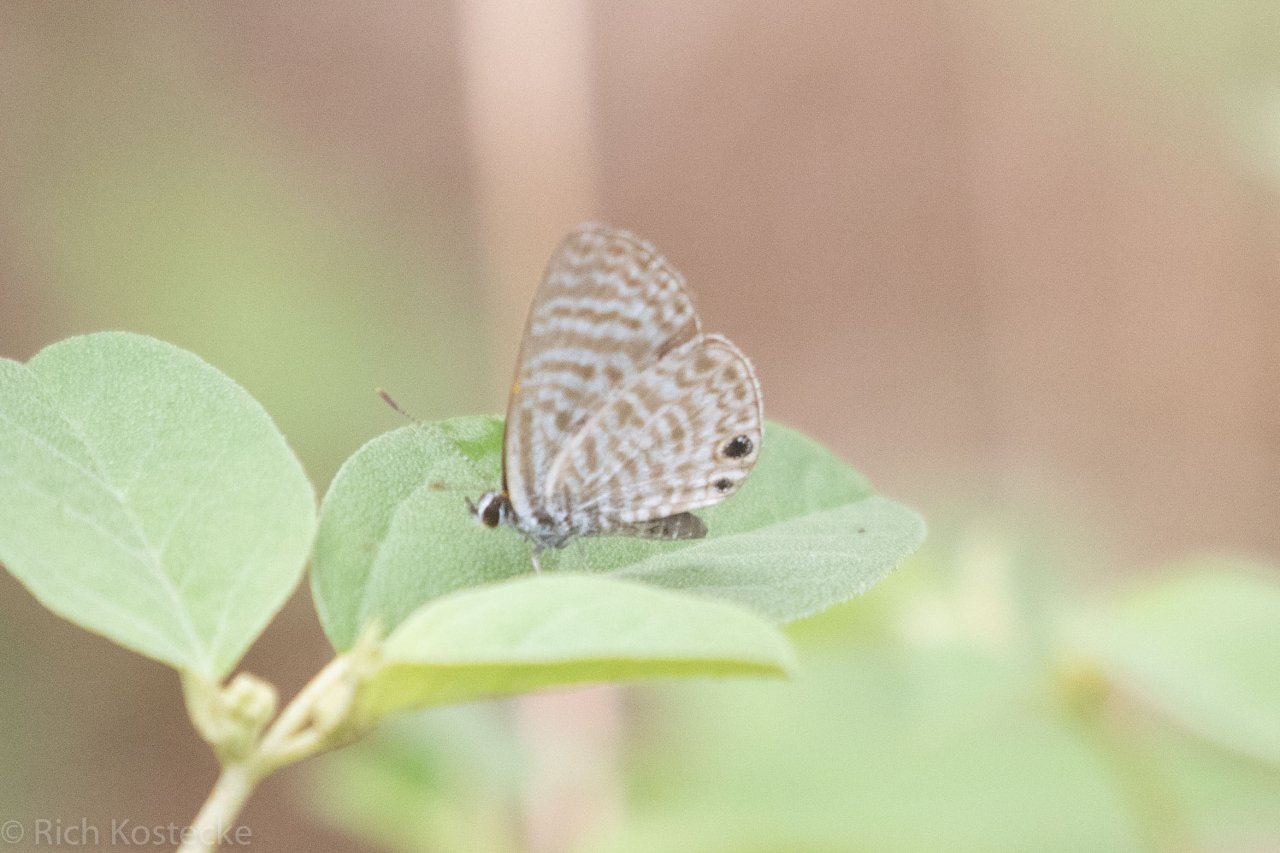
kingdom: Animalia
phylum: Arthropoda
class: Insecta
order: Lepidoptera
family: Lycaenidae
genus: Leptotes
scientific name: Leptotes marina
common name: Marine Blue
